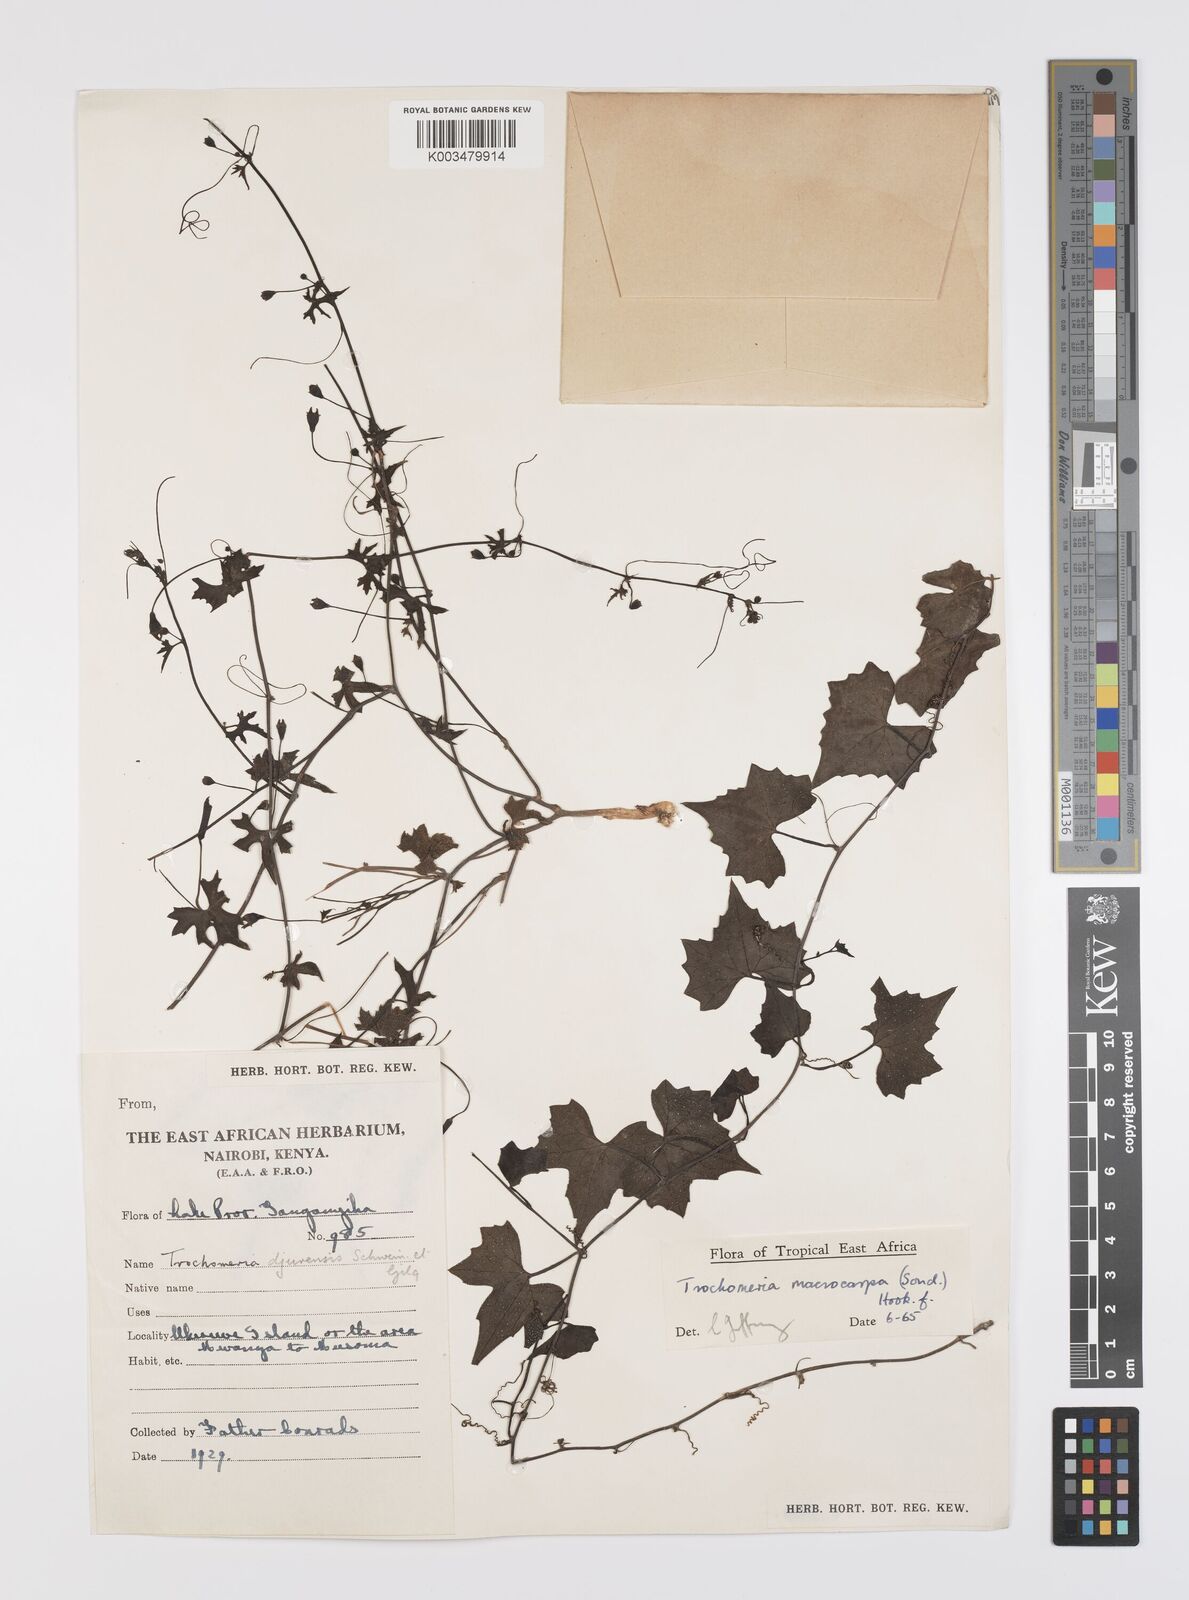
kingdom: Plantae
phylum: Tracheophyta
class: Magnoliopsida
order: Cucurbitales
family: Cucurbitaceae
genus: Trochomeria
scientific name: Trochomeria macrocarpa
